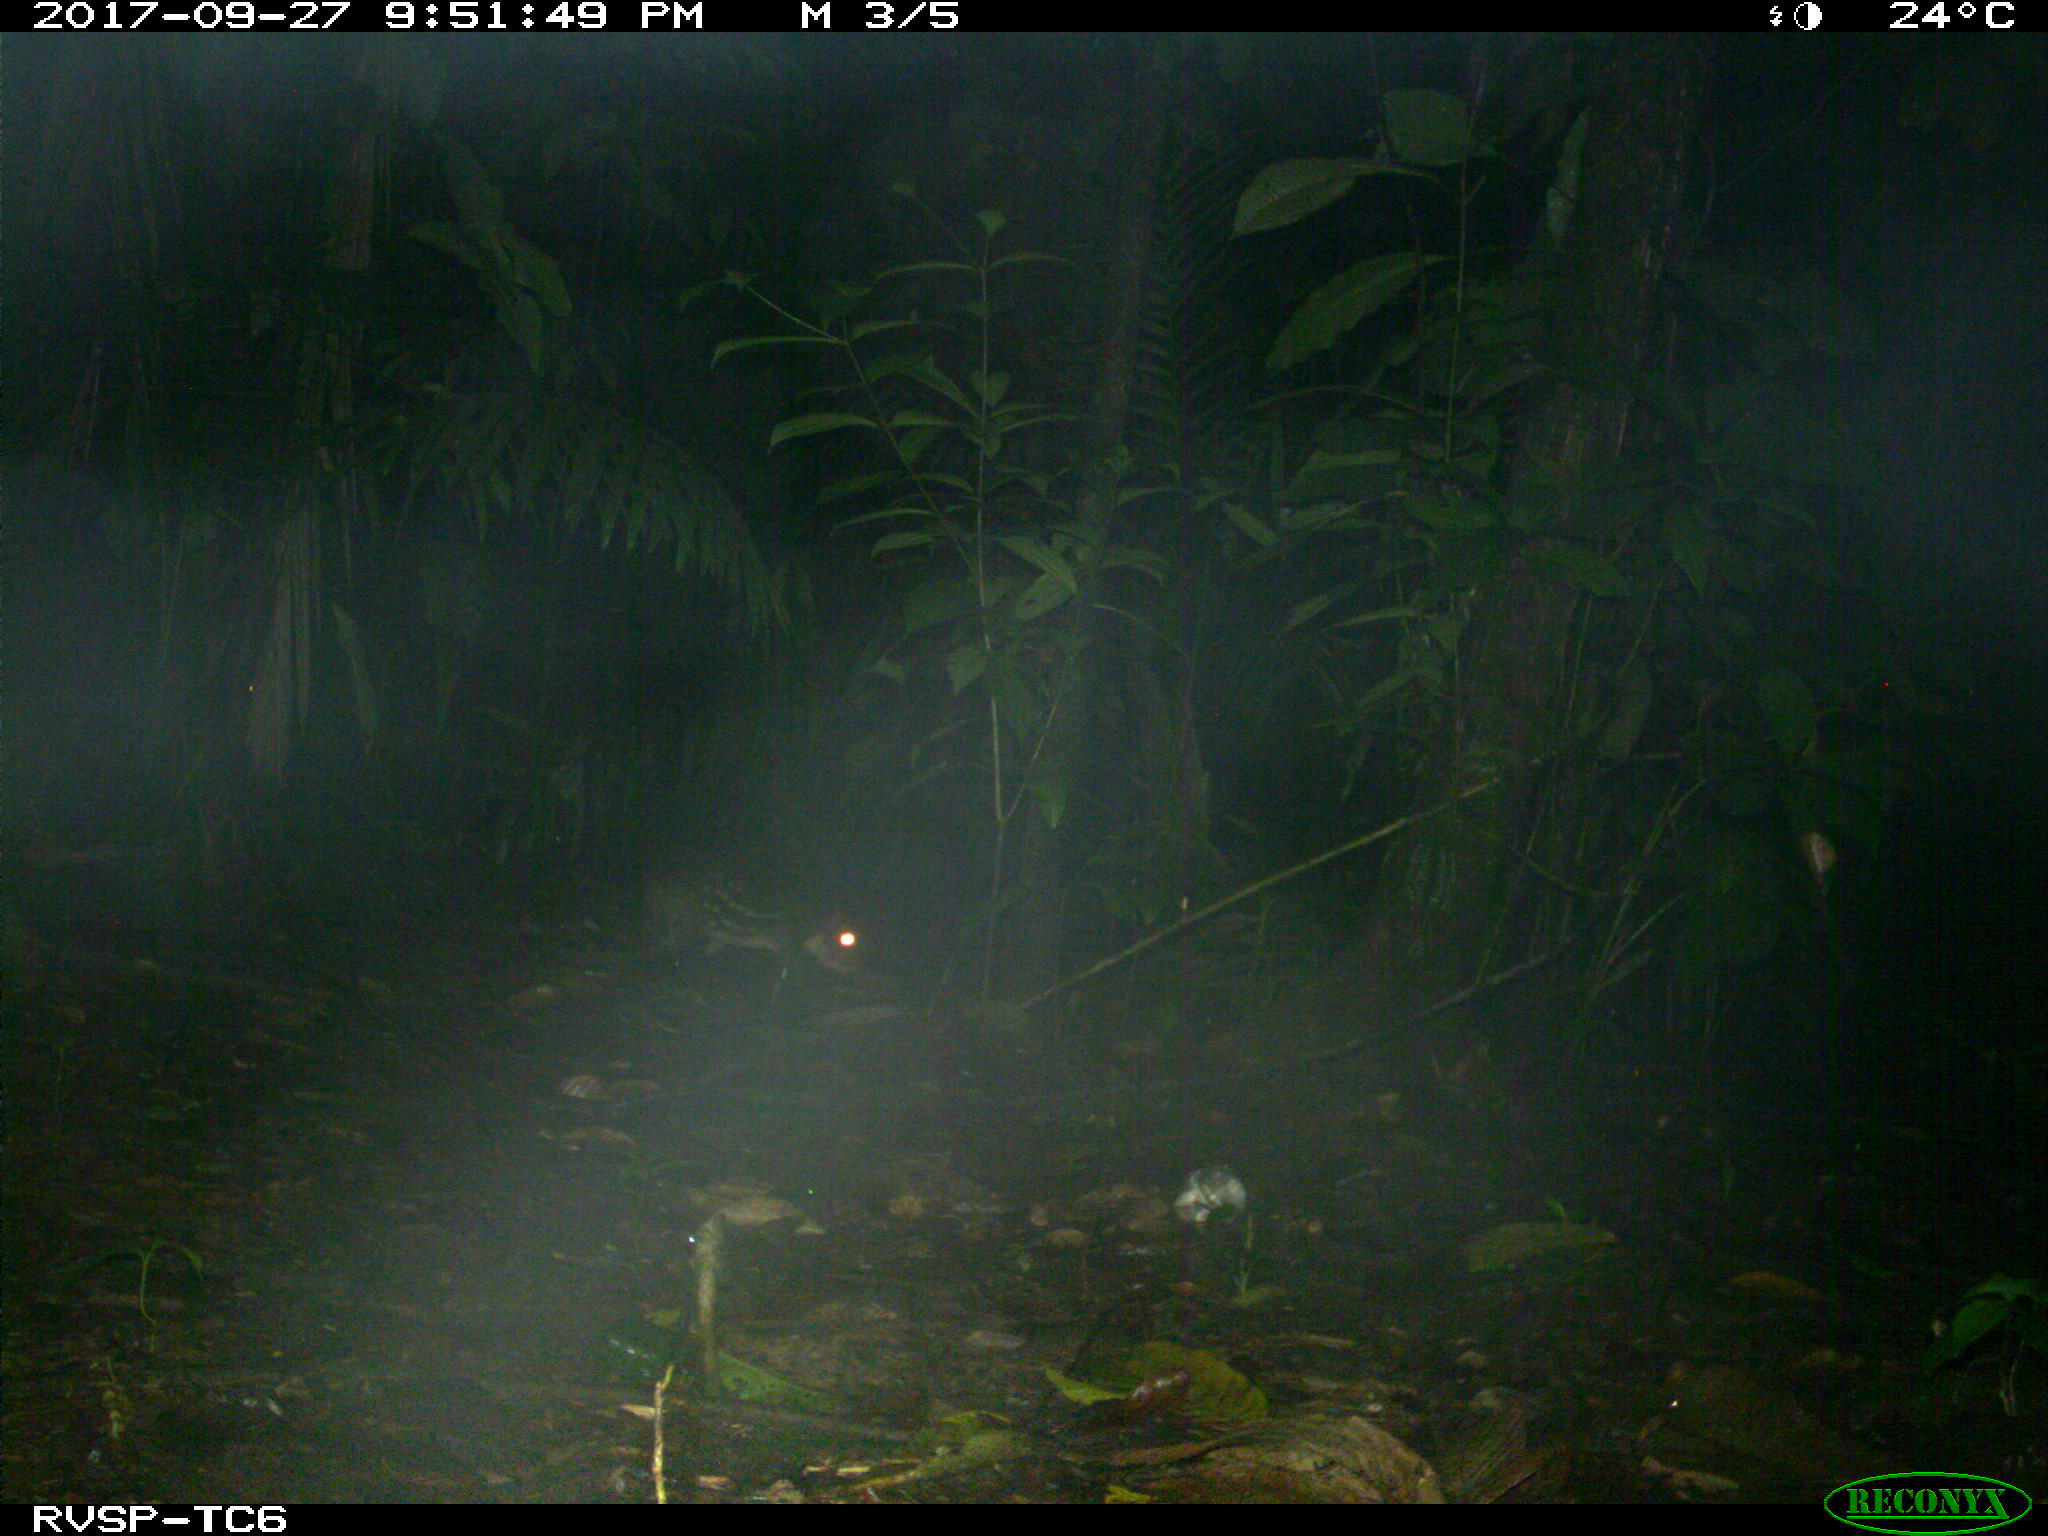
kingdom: Animalia
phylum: Chordata
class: Mammalia
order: Rodentia
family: Cuniculidae
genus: Cuniculus
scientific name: Cuniculus paca
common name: Lowland paca
